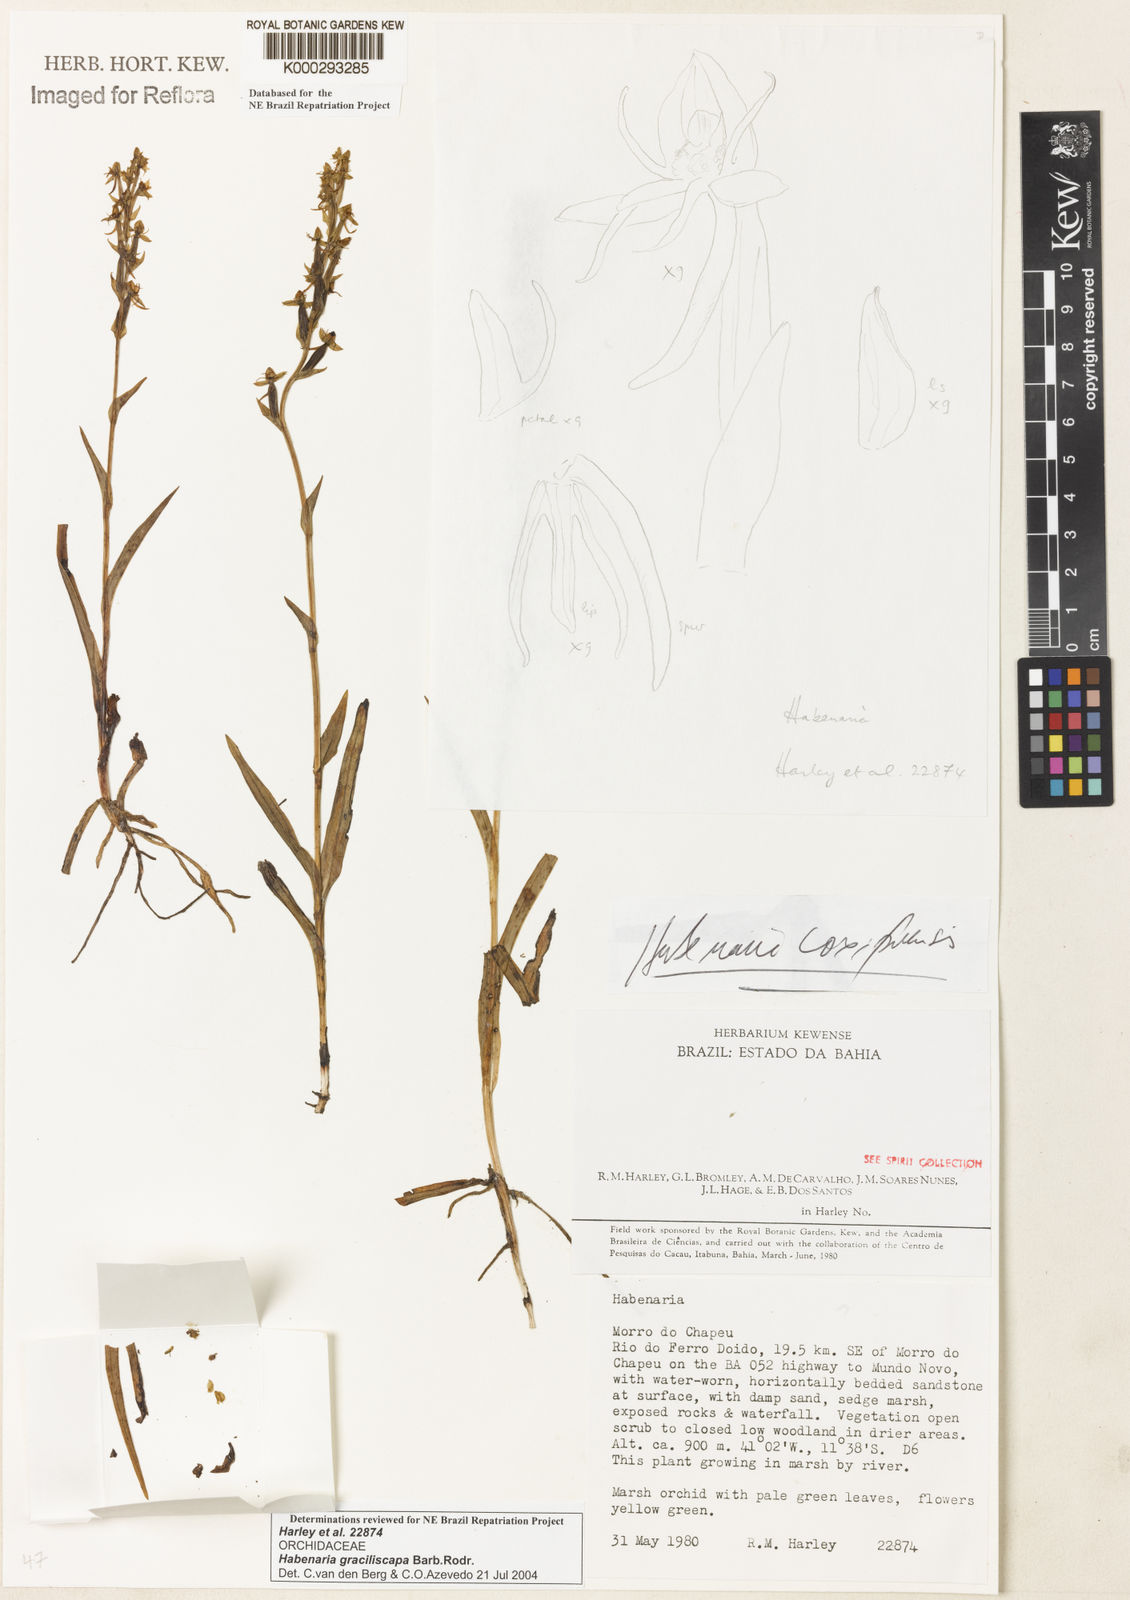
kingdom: Plantae
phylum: Tracheophyta
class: Liliopsida
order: Asparagales
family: Orchidaceae
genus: Habenaria
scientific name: Habenaria imbricata
